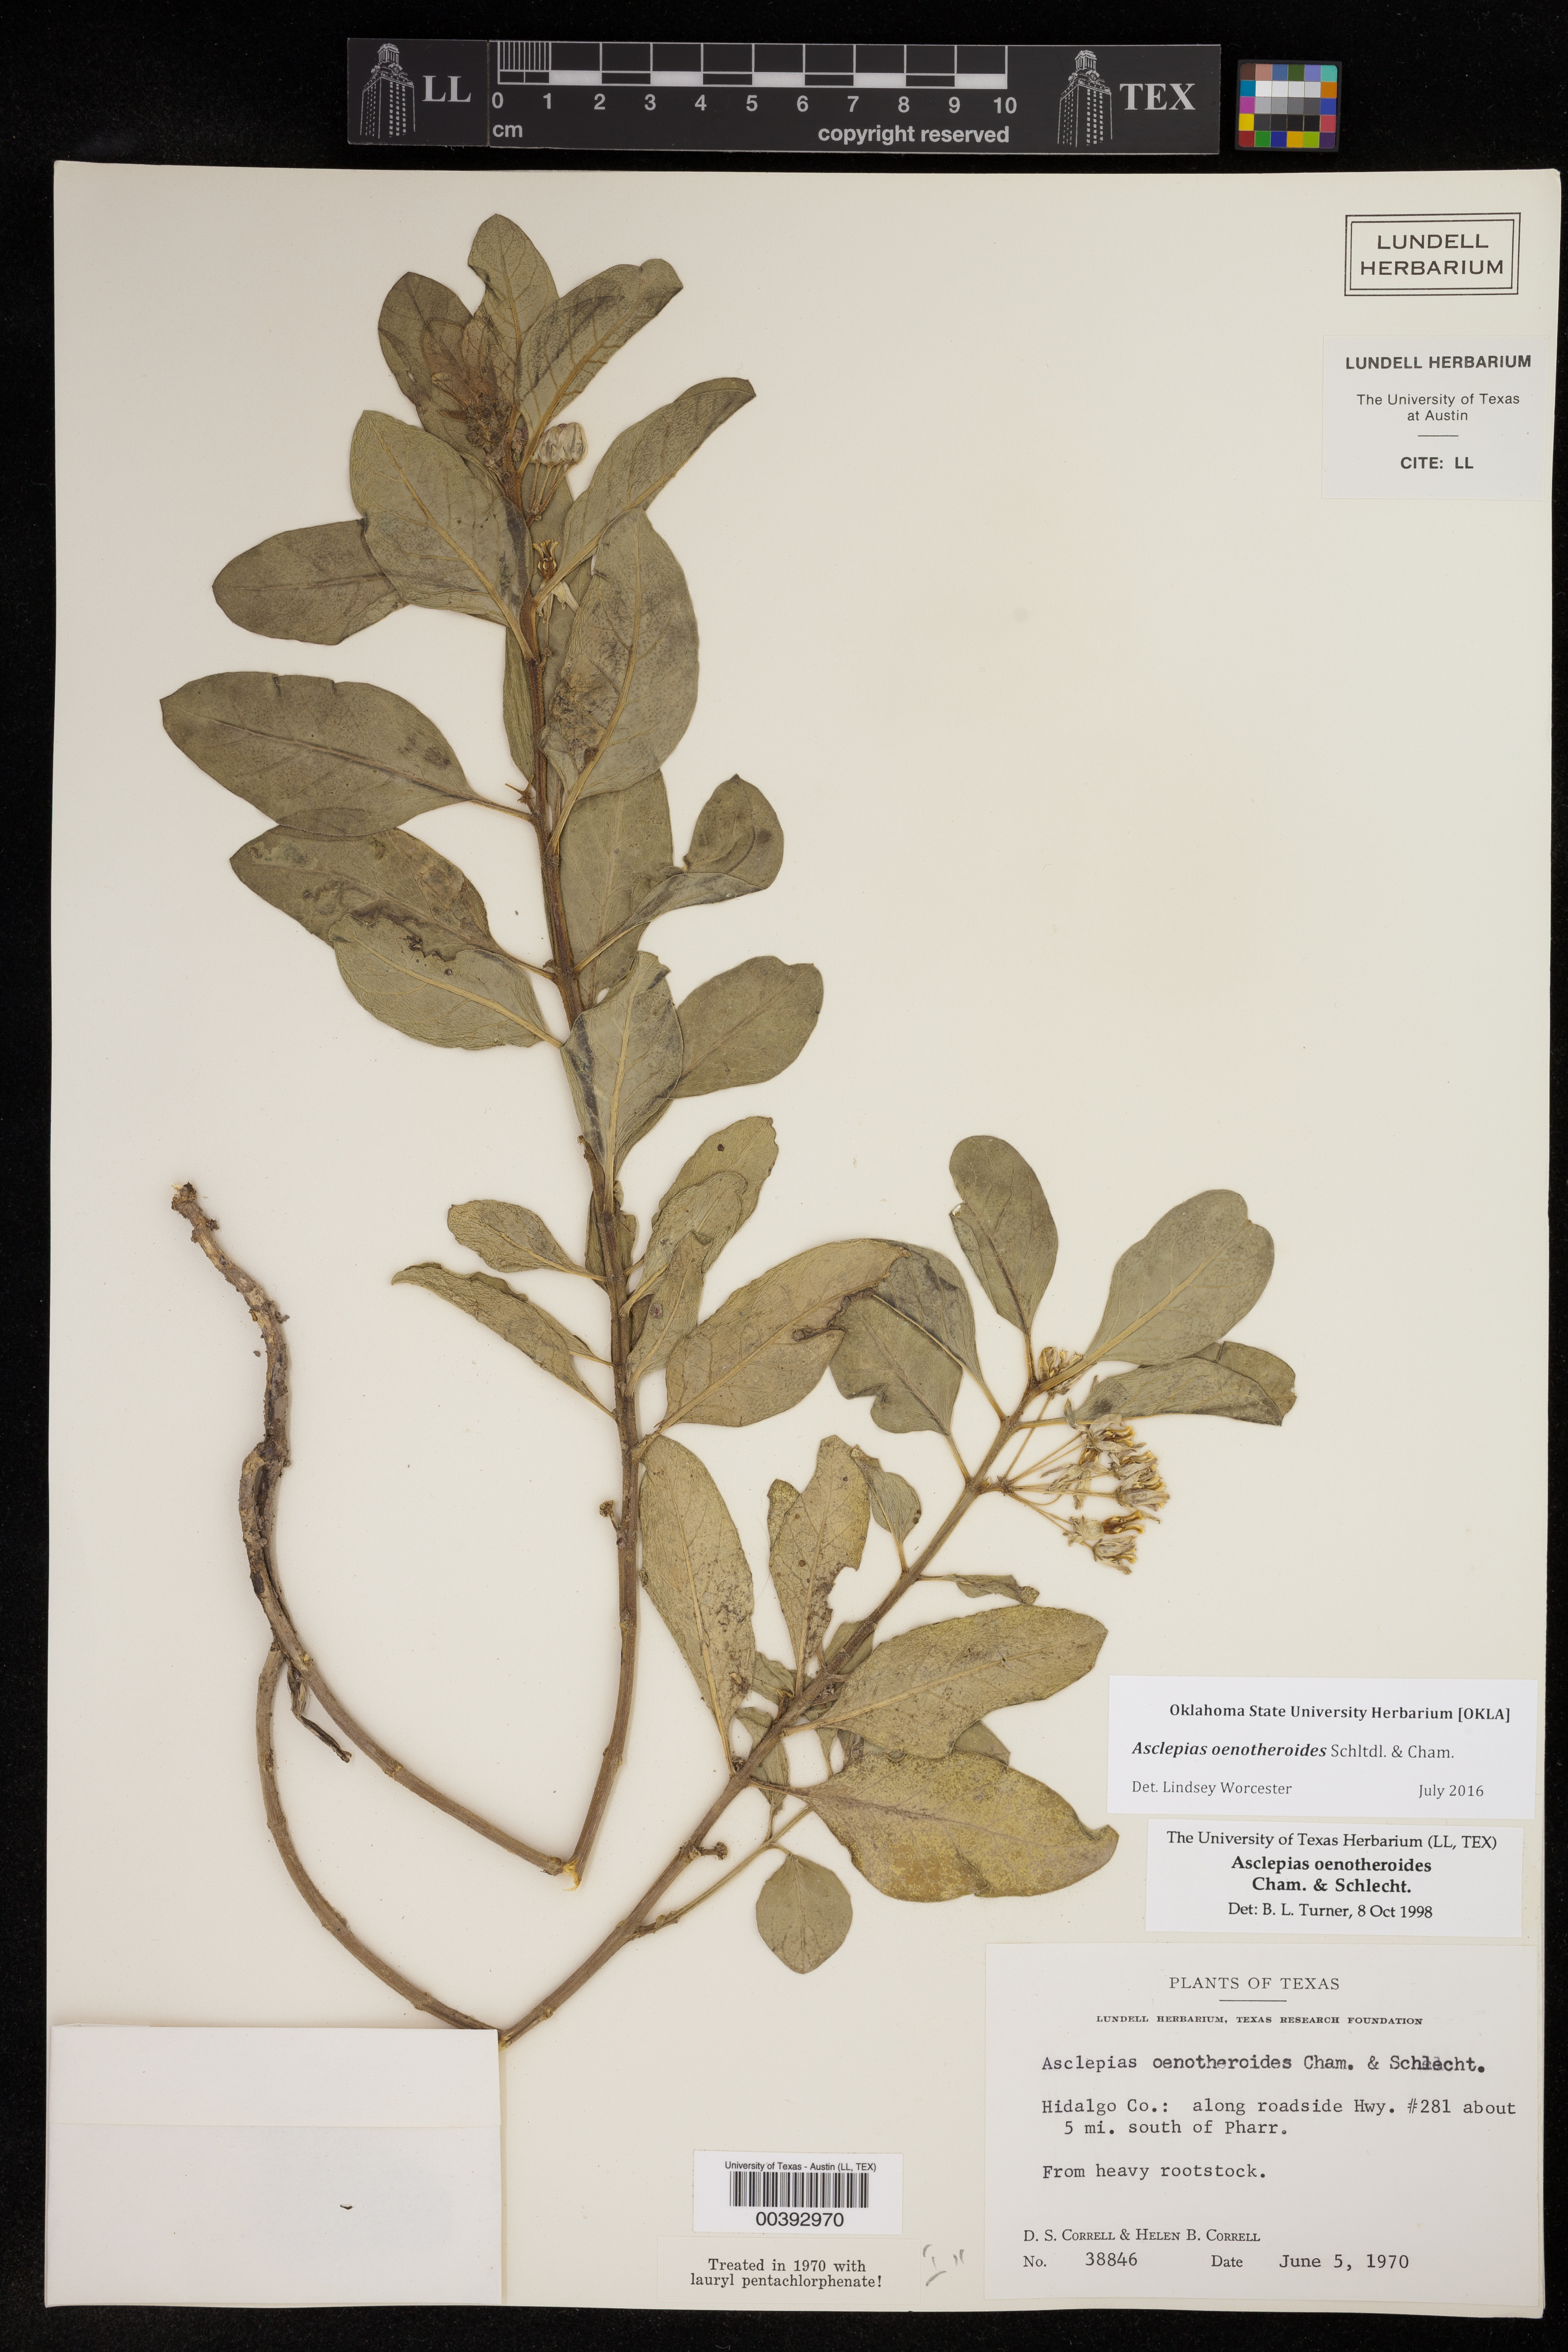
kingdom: Plantae
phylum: Tracheophyta
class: Magnoliopsida
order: Gentianales
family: Apocynaceae
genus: Asclepias
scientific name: Asclepias oenotheroides
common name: Zizotes milkweed
